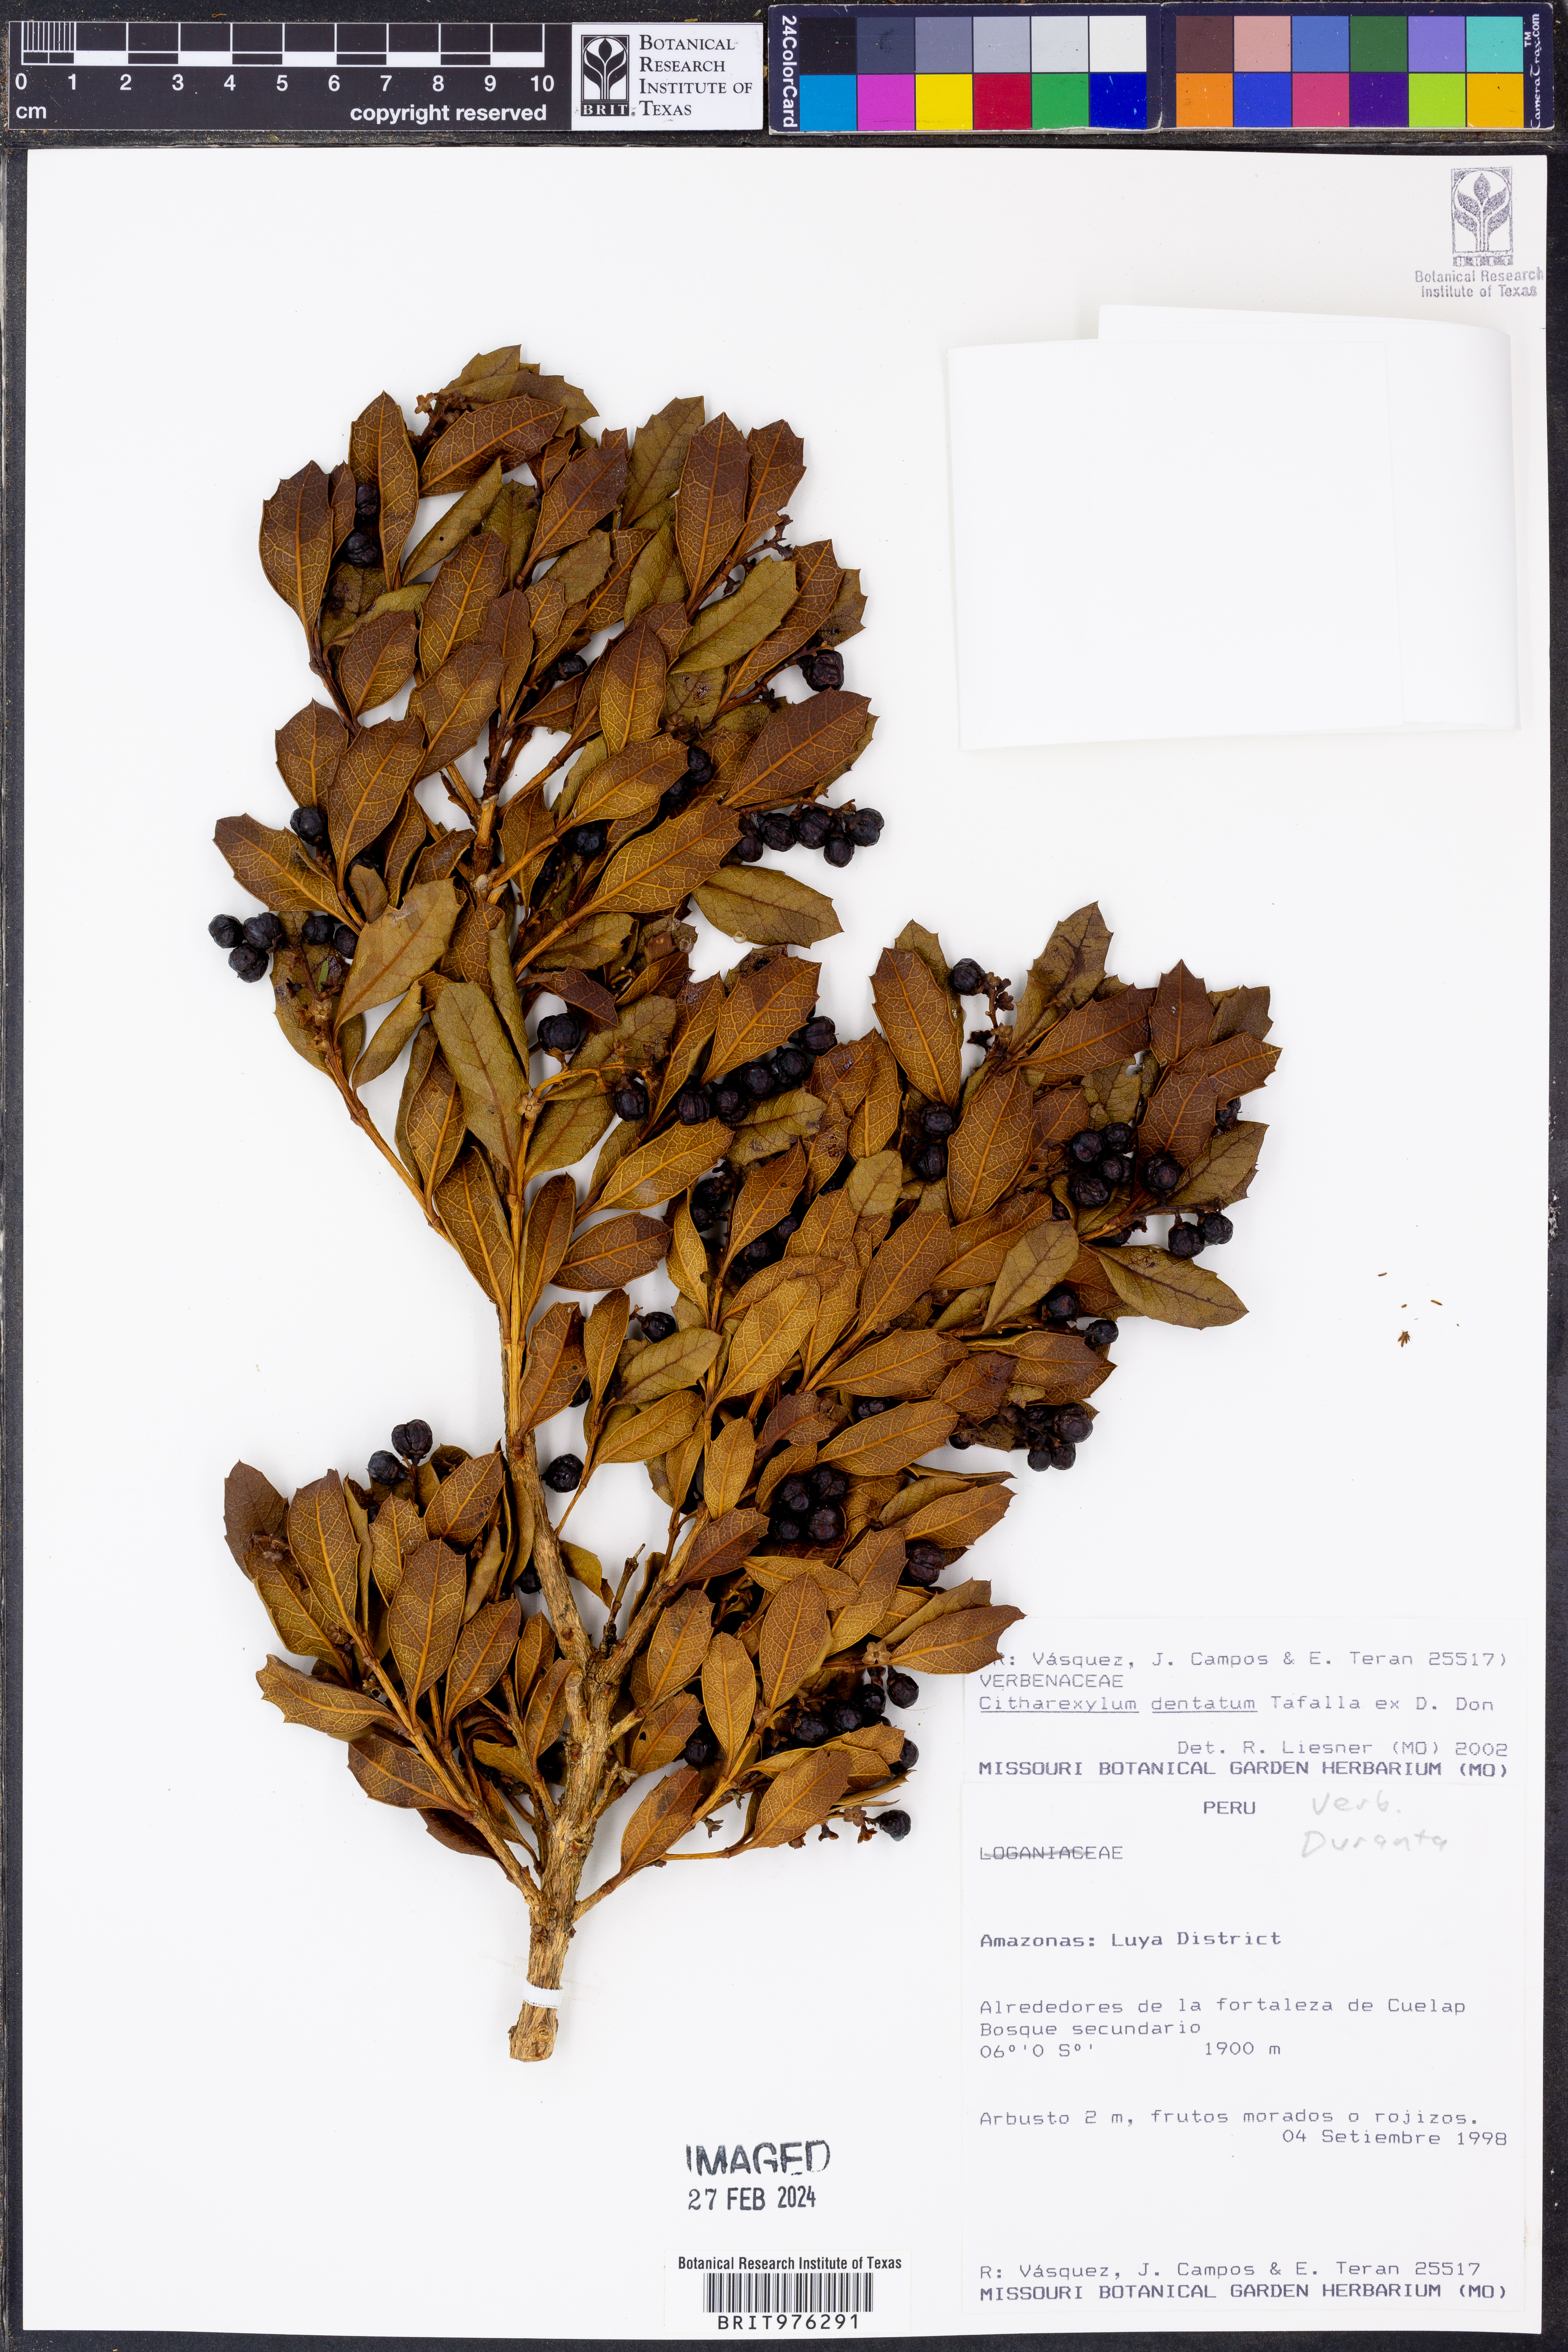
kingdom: Plantae
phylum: Tracheophyta
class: Magnoliopsida
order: Lamiales
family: Verbenaceae
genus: Citharexylum
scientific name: Citharexylum
